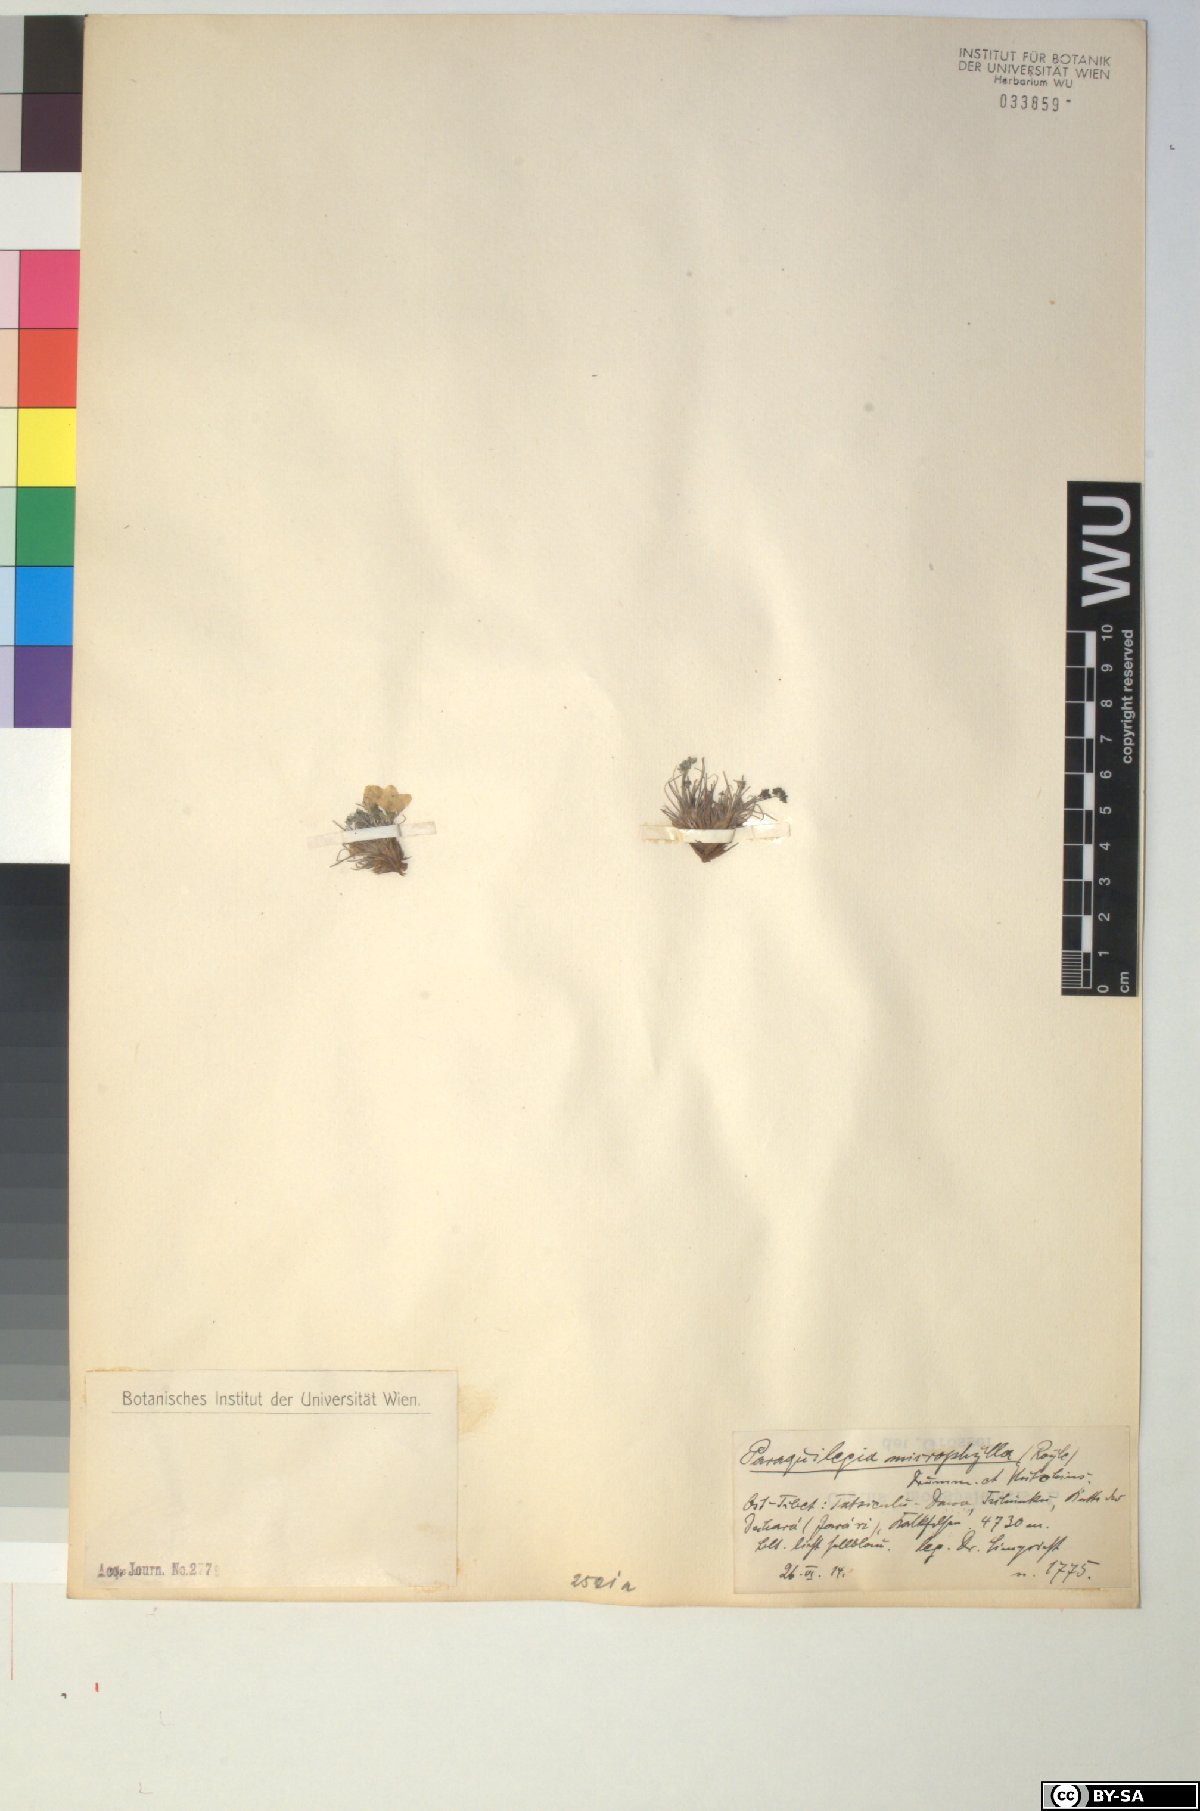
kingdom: Plantae
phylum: Tracheophyta
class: Magnoliopsida
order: Ranunculales
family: Ranunculaceae
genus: Paraquilegia
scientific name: Paraquilegia microphylla
